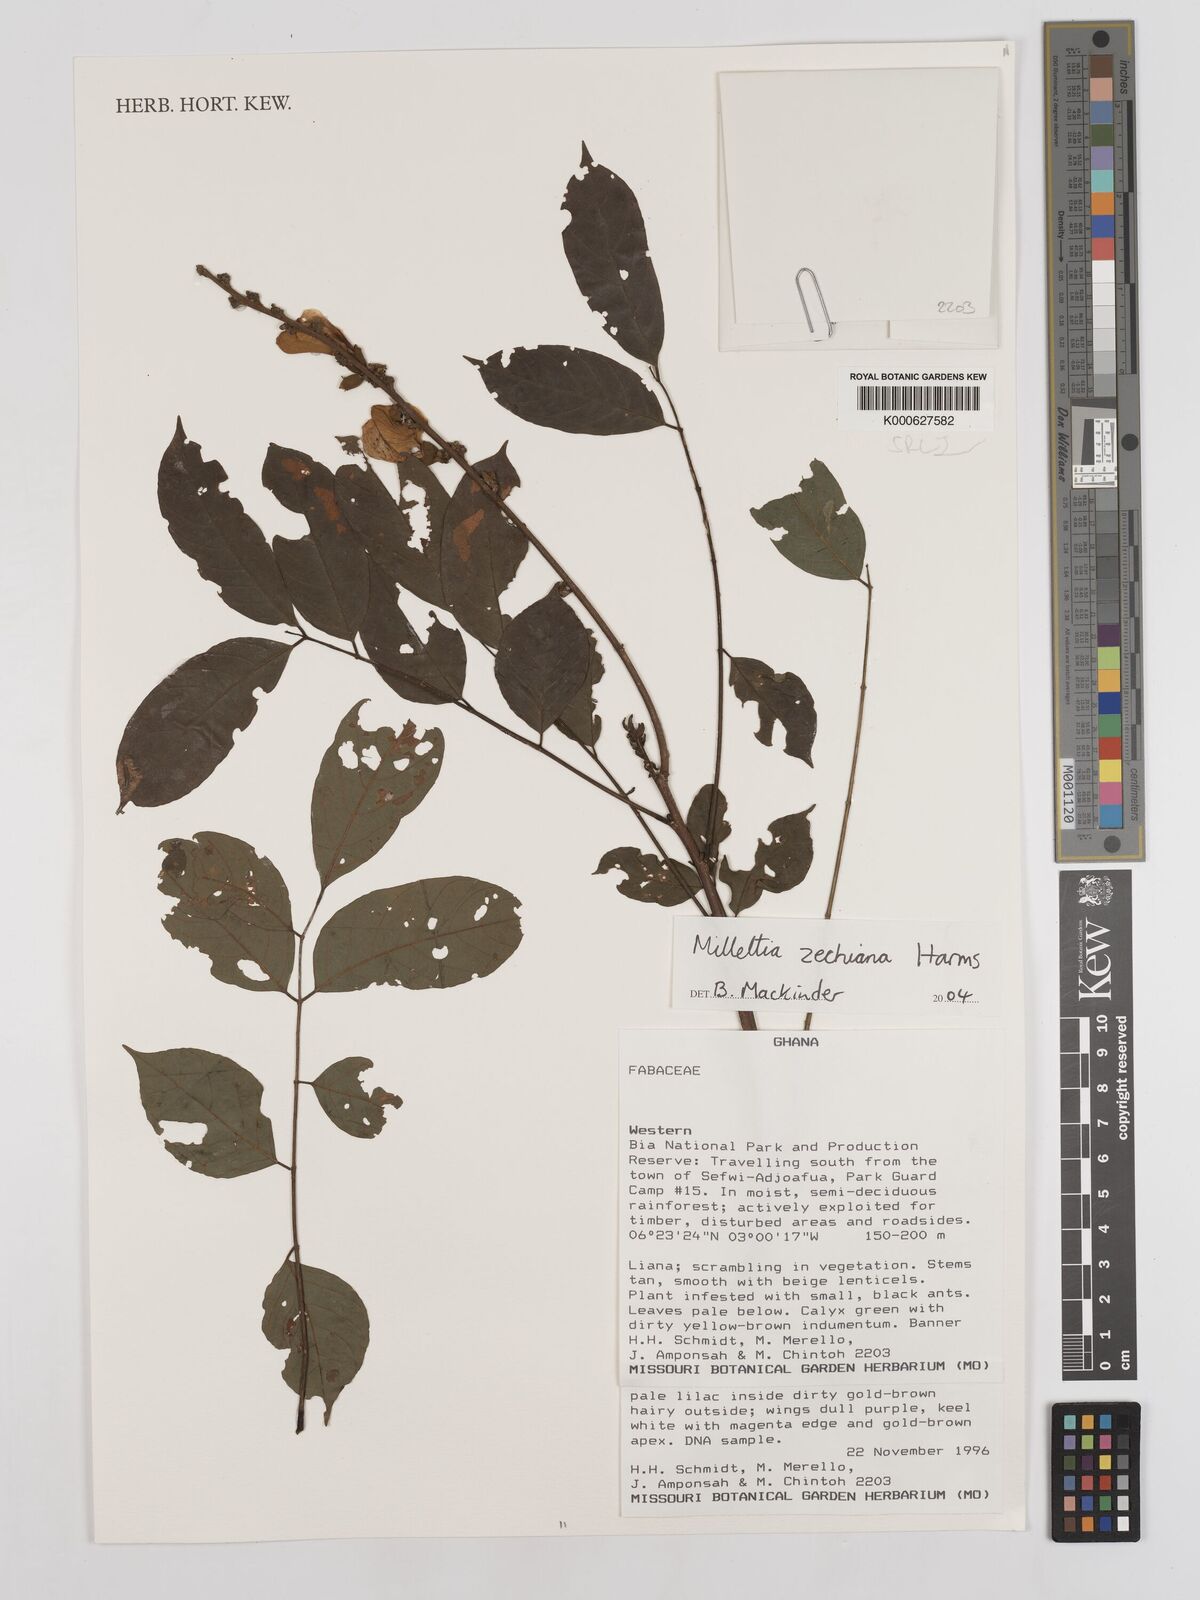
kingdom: Plantae
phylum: Tracheophyta
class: Magnoliopsida
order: Fabales
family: Fabaceae
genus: Millettia
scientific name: Millettia zechiana
